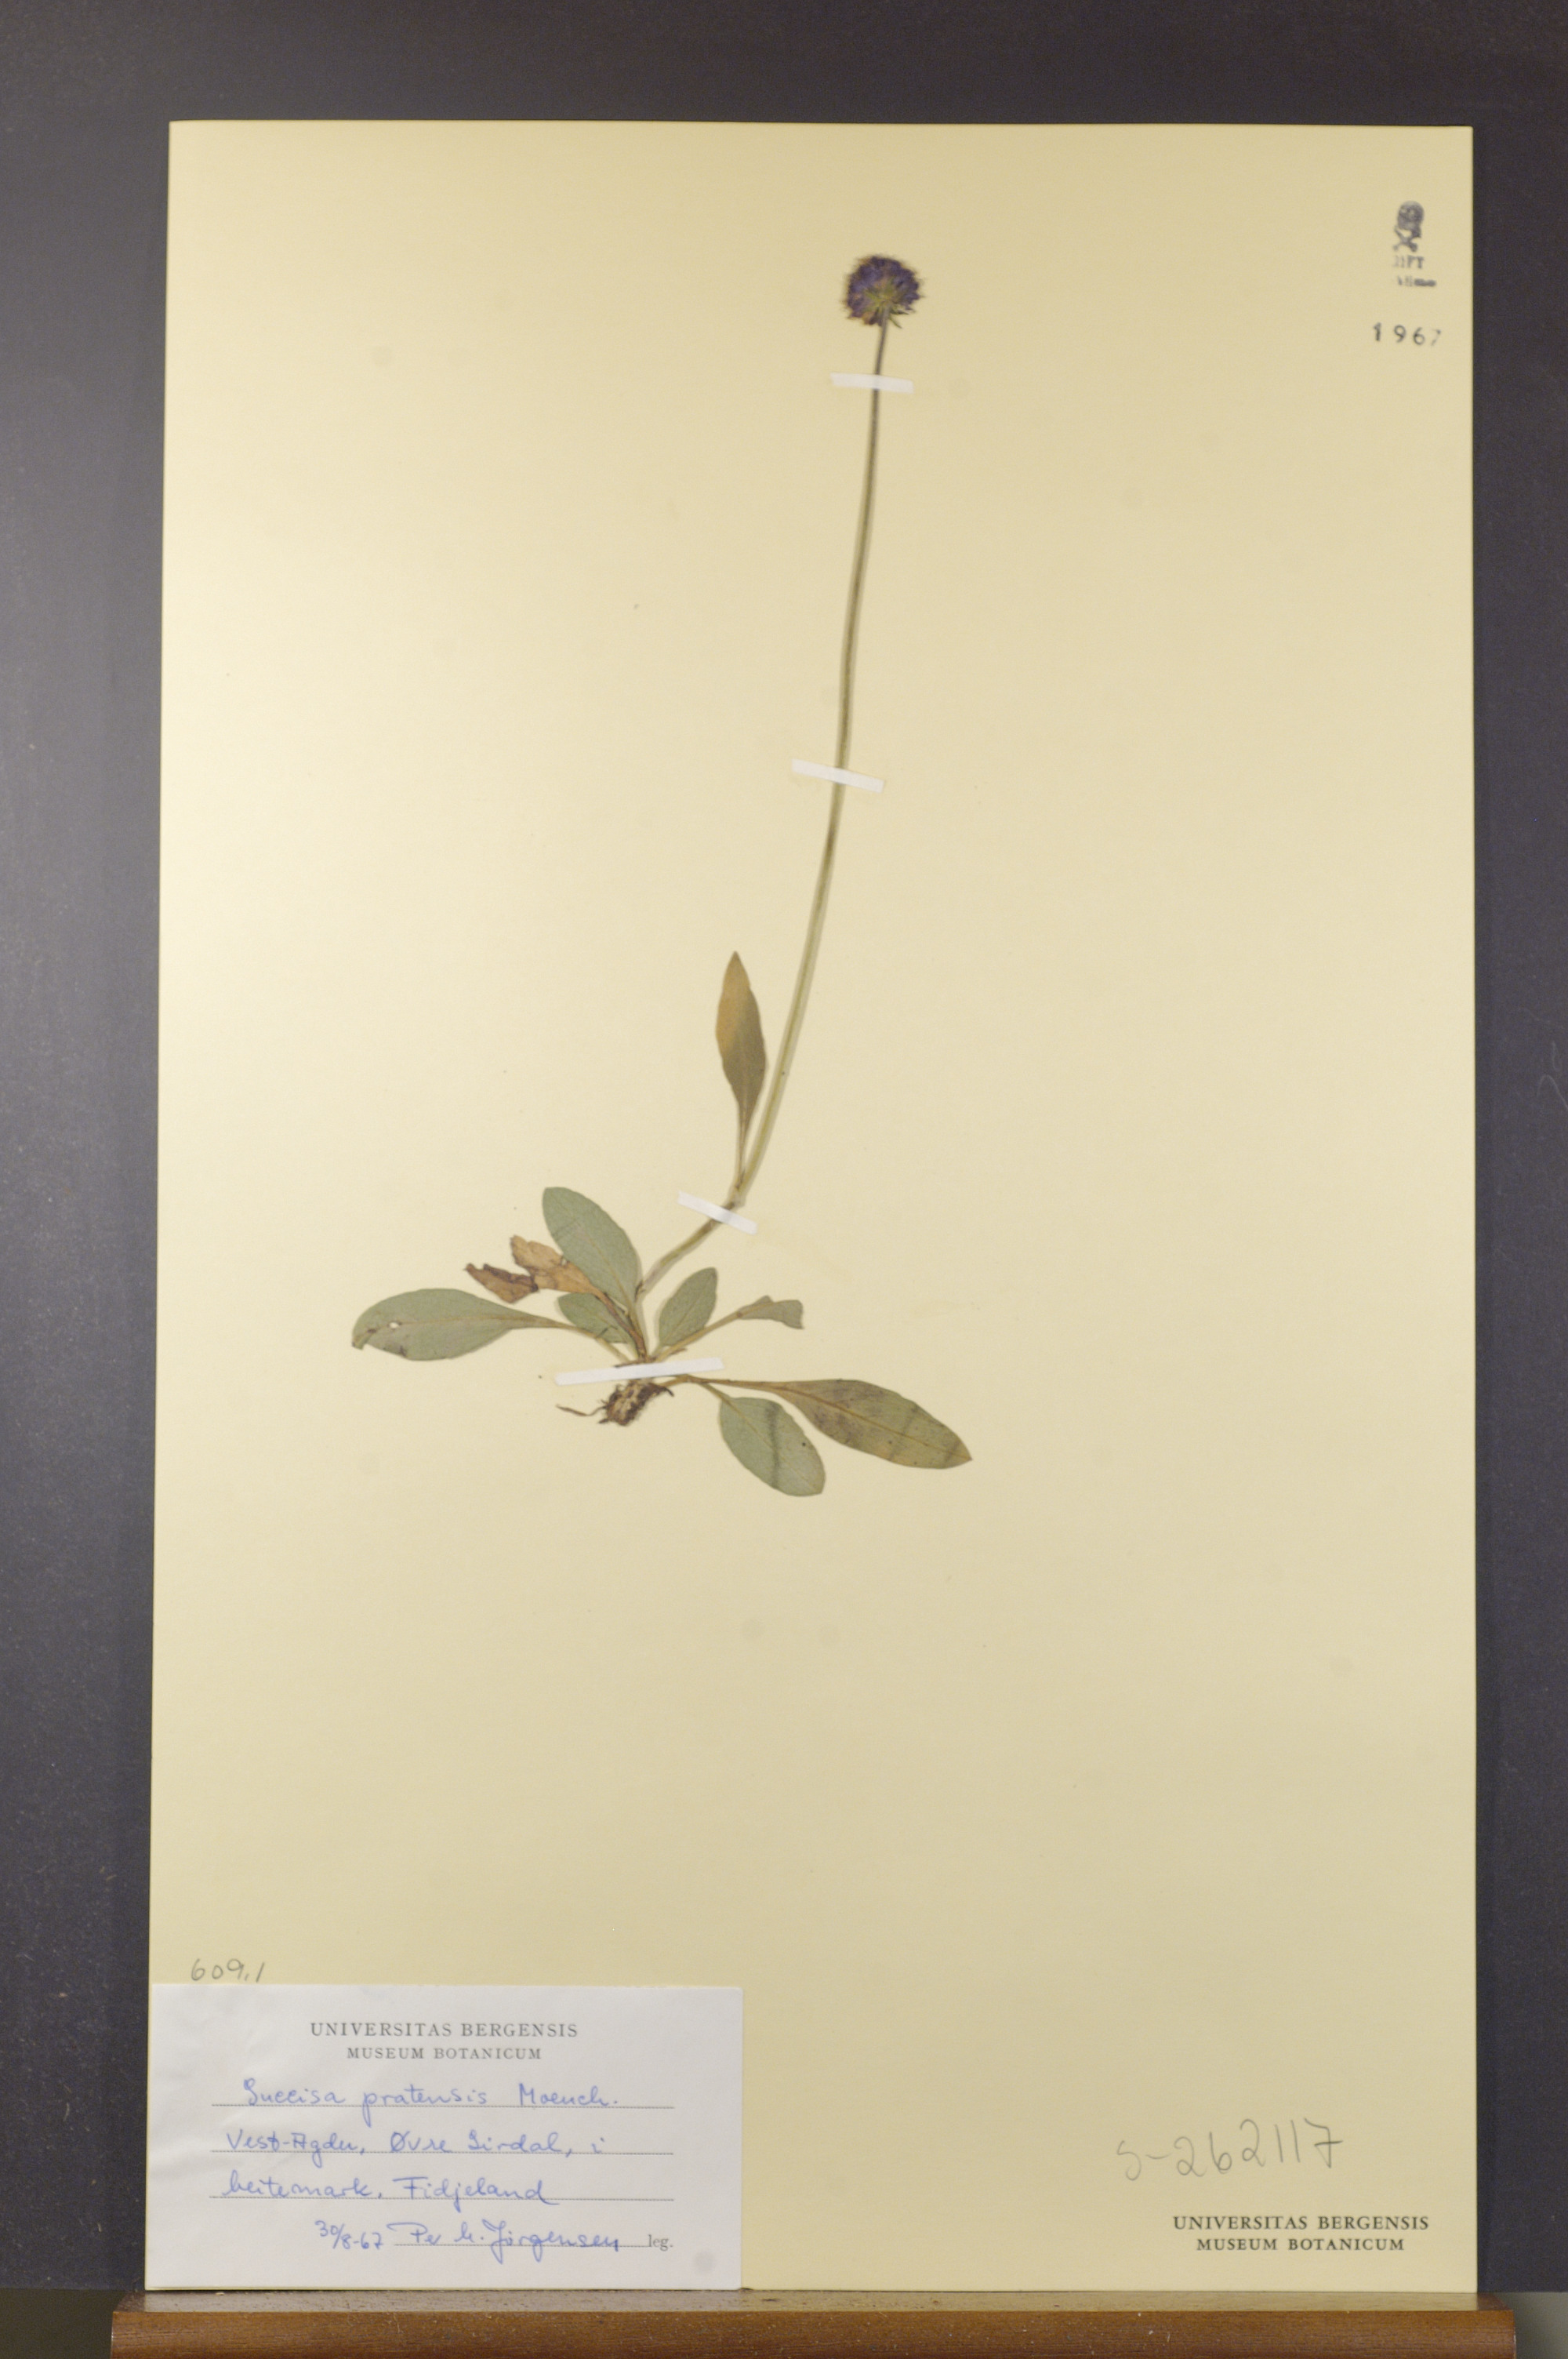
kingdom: Plantae
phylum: Tracheophyta
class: Magnoliopsida
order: Dipsacales
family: Caprifoliaceae
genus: Succisa
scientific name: Succisa pratensis
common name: Devil's-bit
